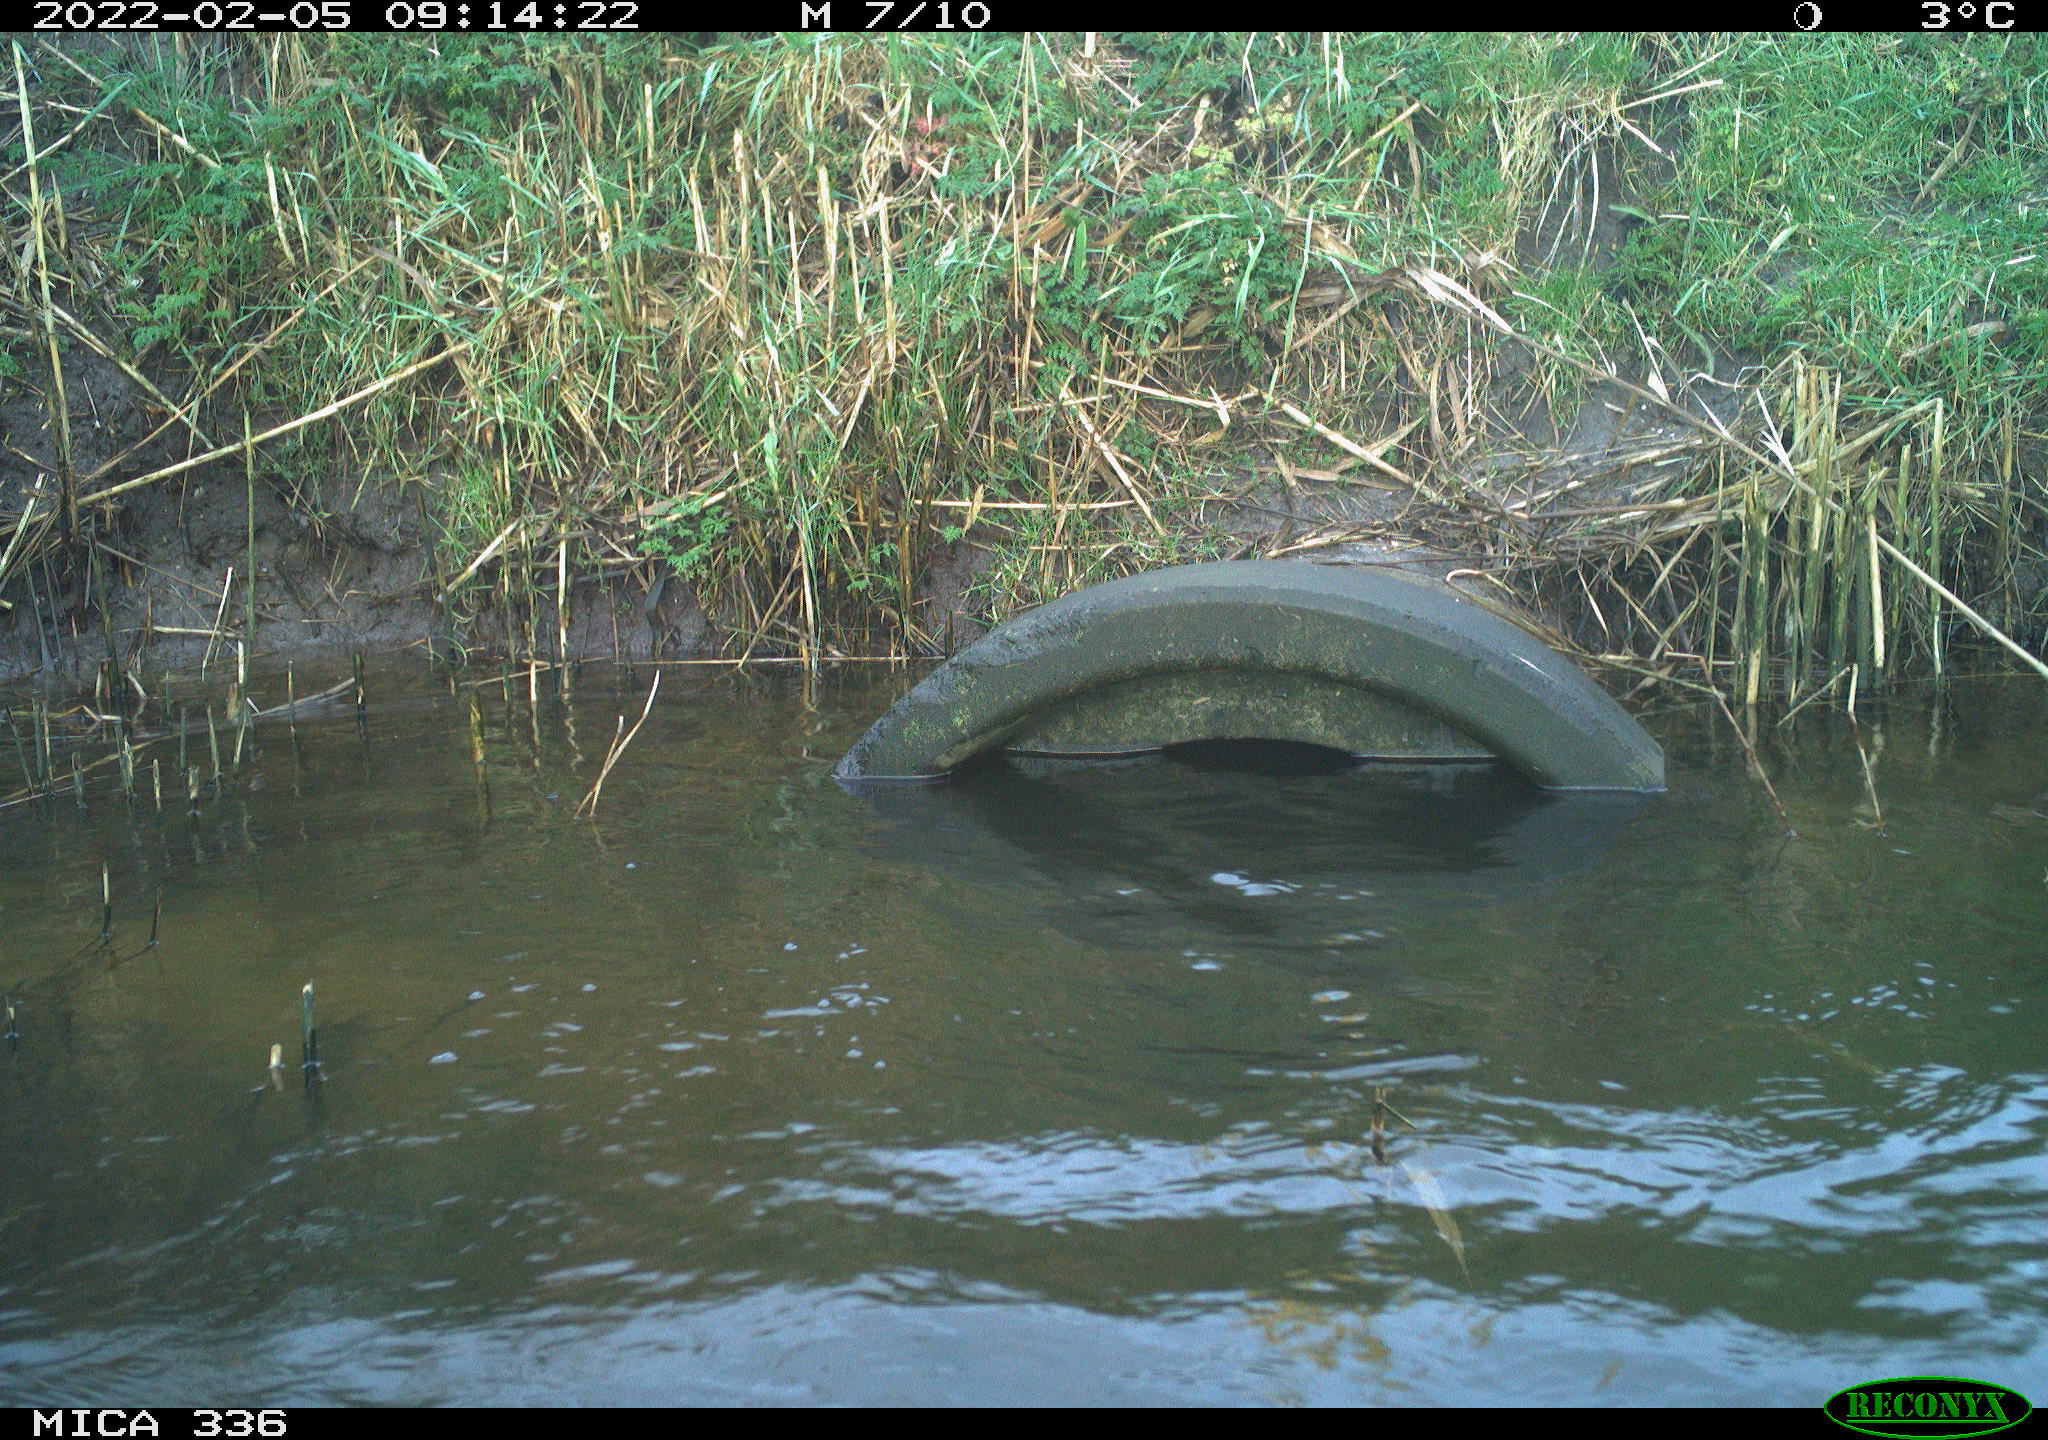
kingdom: Animalia
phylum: Chordata
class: Aves
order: Suliformes
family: Phalacrocoracidae
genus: Phalacrocorax
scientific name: Phalacrocorax carbo
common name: Great cormorant
